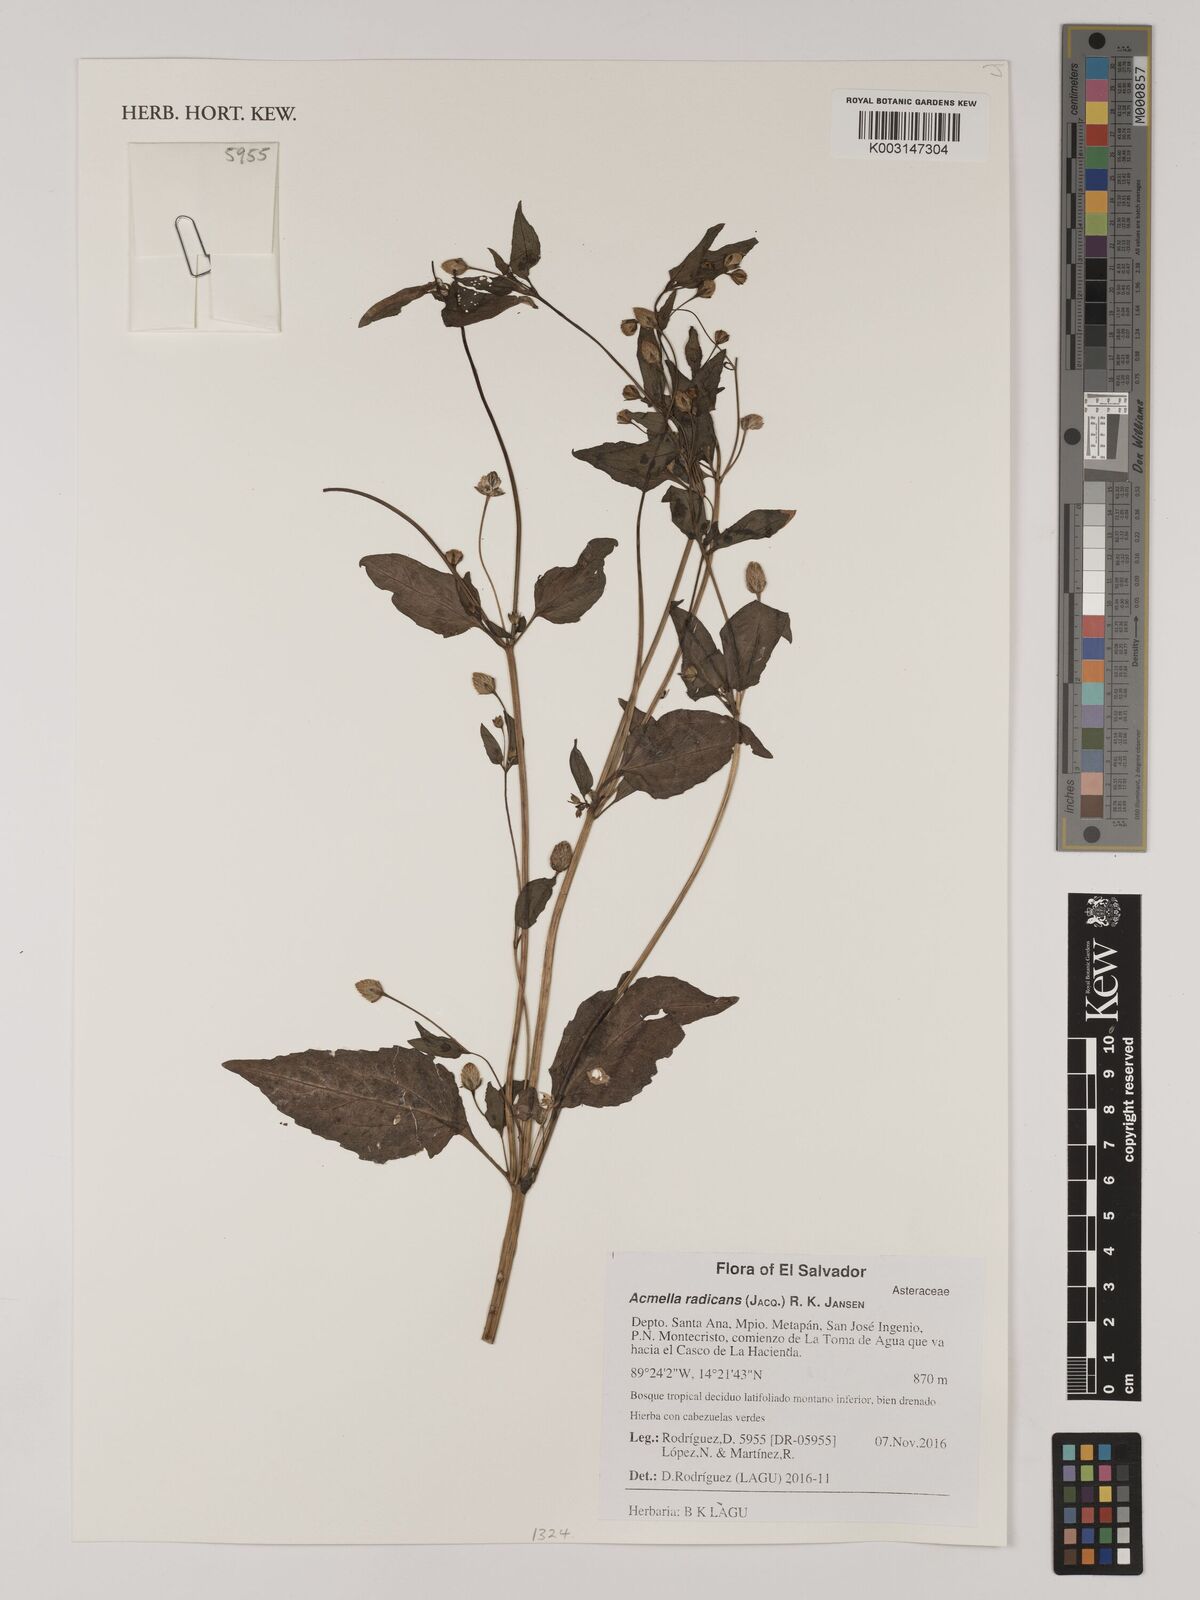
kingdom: Plantae
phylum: Tracheophyta
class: Magnoliopsida
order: Asterales
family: Asteraceae
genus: Acmella
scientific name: Acmella radicans
